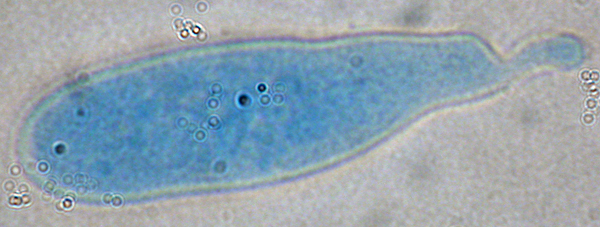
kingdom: Fungi
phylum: Ascomycota
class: Leotiomycetes
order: Phacidiales
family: Helicogoniaceae
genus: Helicogonium
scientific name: Helicogonium
